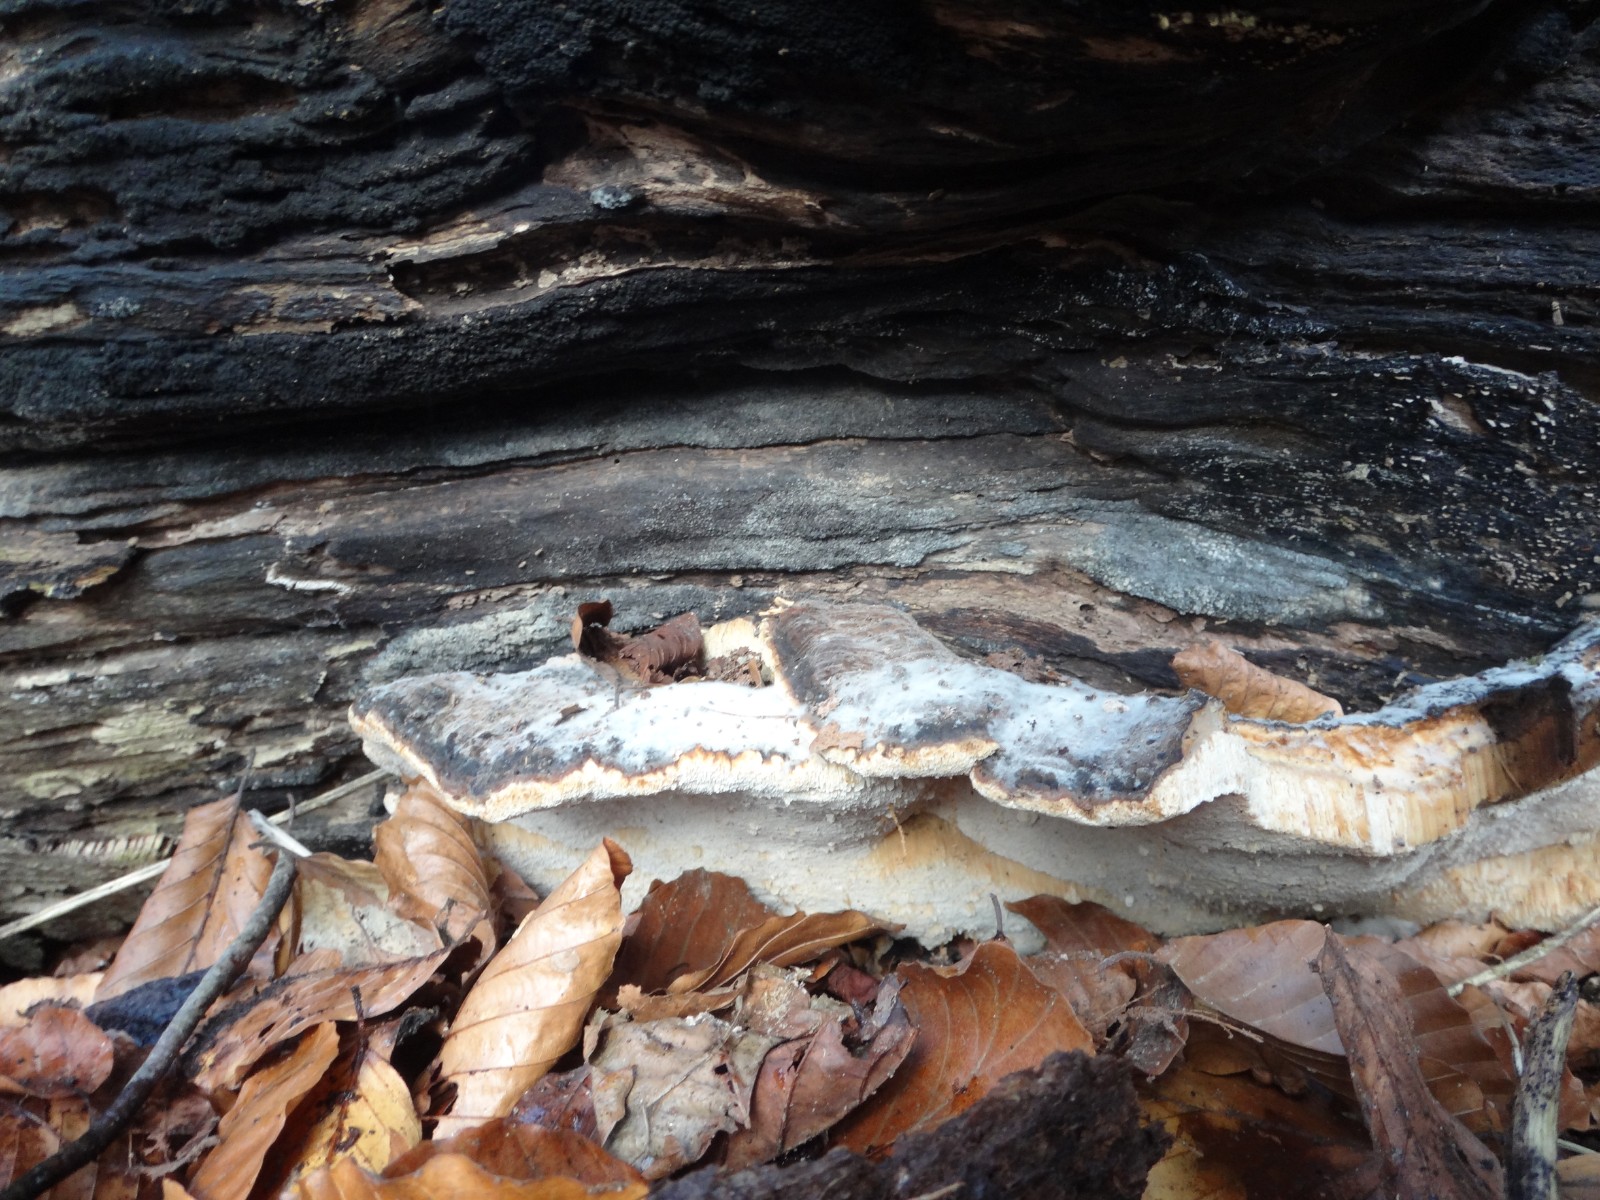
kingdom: Fungi
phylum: Basidiomycota
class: Agaricomycetes
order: Polyporales
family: Ischnodermataceae
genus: Ischnoderma
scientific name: Ischnoderma resinosum
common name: løv-tjæreporesvamp
